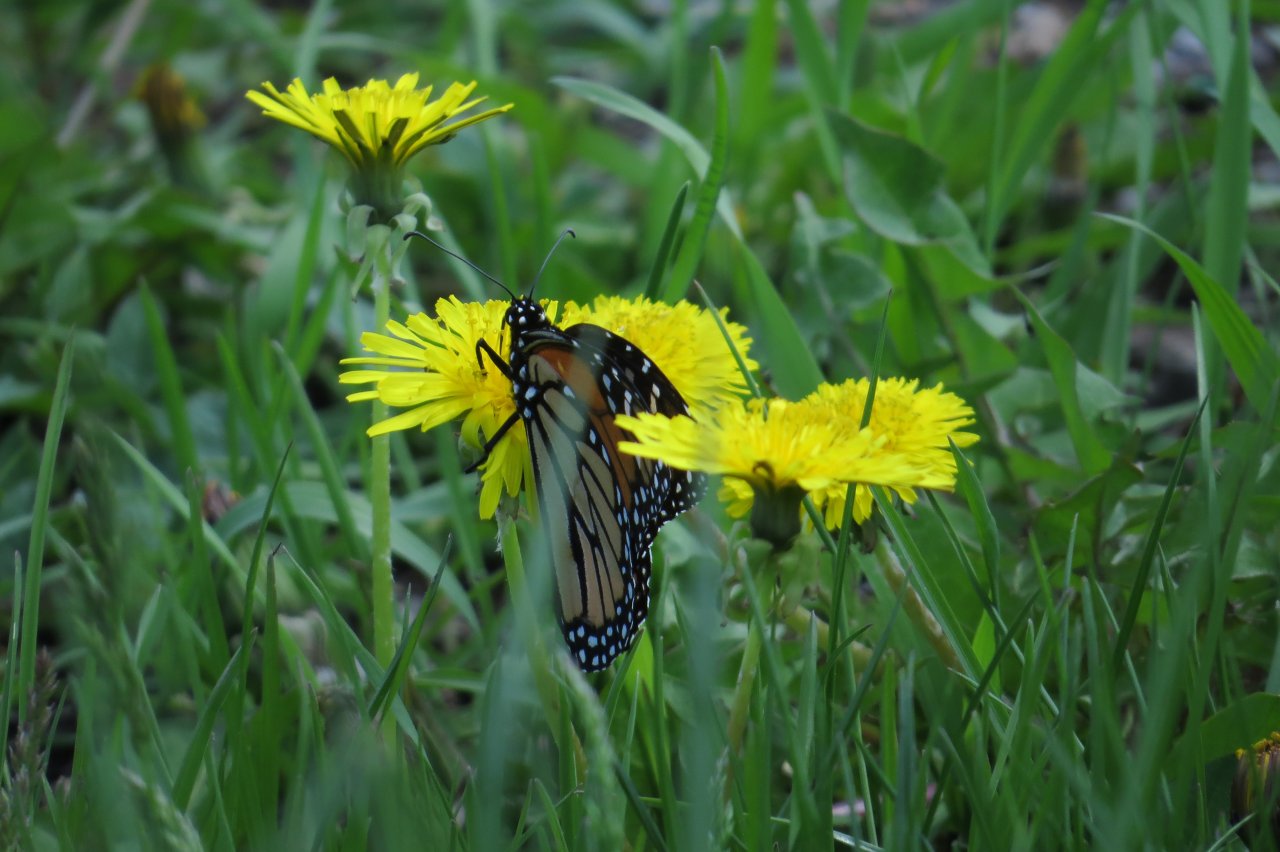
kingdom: Animalia
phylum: Arthropoda
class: Insecta
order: Lepidoptera
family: Nymphalidae
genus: Danaus
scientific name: Danaus plexippus
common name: Monarch
